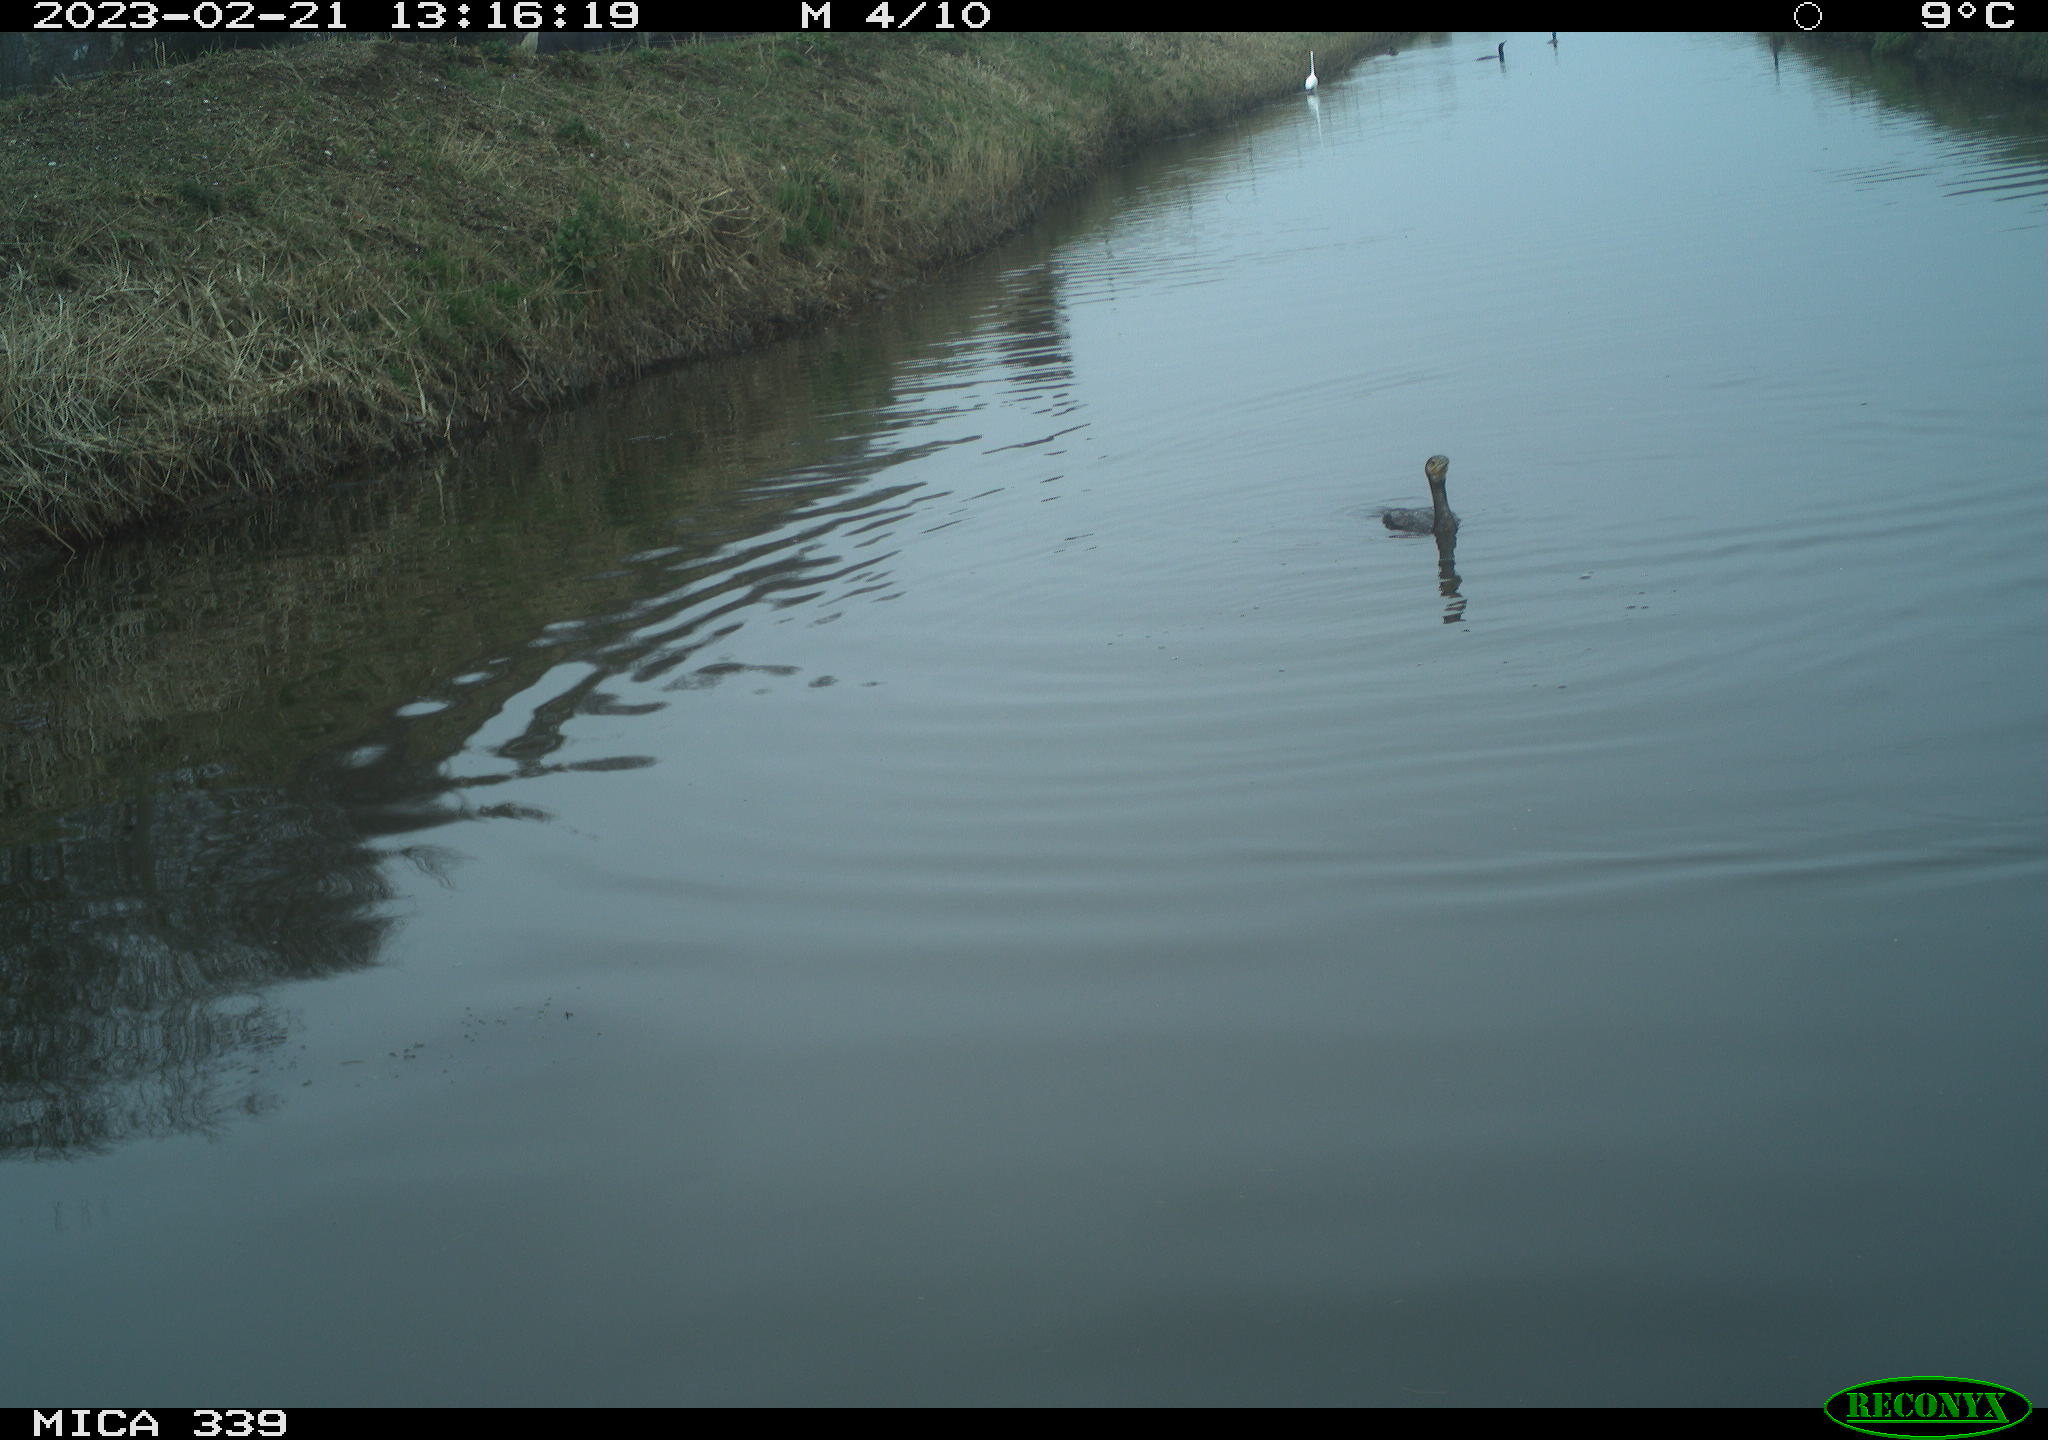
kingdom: Animalia
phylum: Chordata
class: Aves
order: Suliformes
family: Phalacrocoracidae
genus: Phalacrocorax
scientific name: Phalacrocorax carbo
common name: Great cormorant
